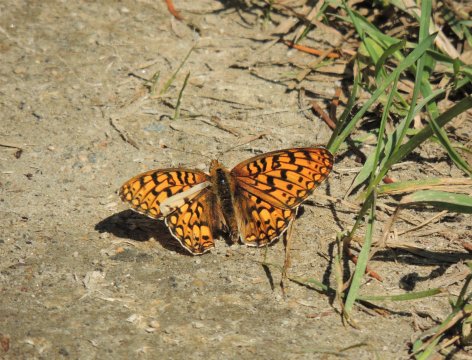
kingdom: Animalia
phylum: Arthropoda
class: Insecta
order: Lepidoptera
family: Nymphalidae
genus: Speyeria
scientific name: Speyeria callippe
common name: Callippe Fritillary
